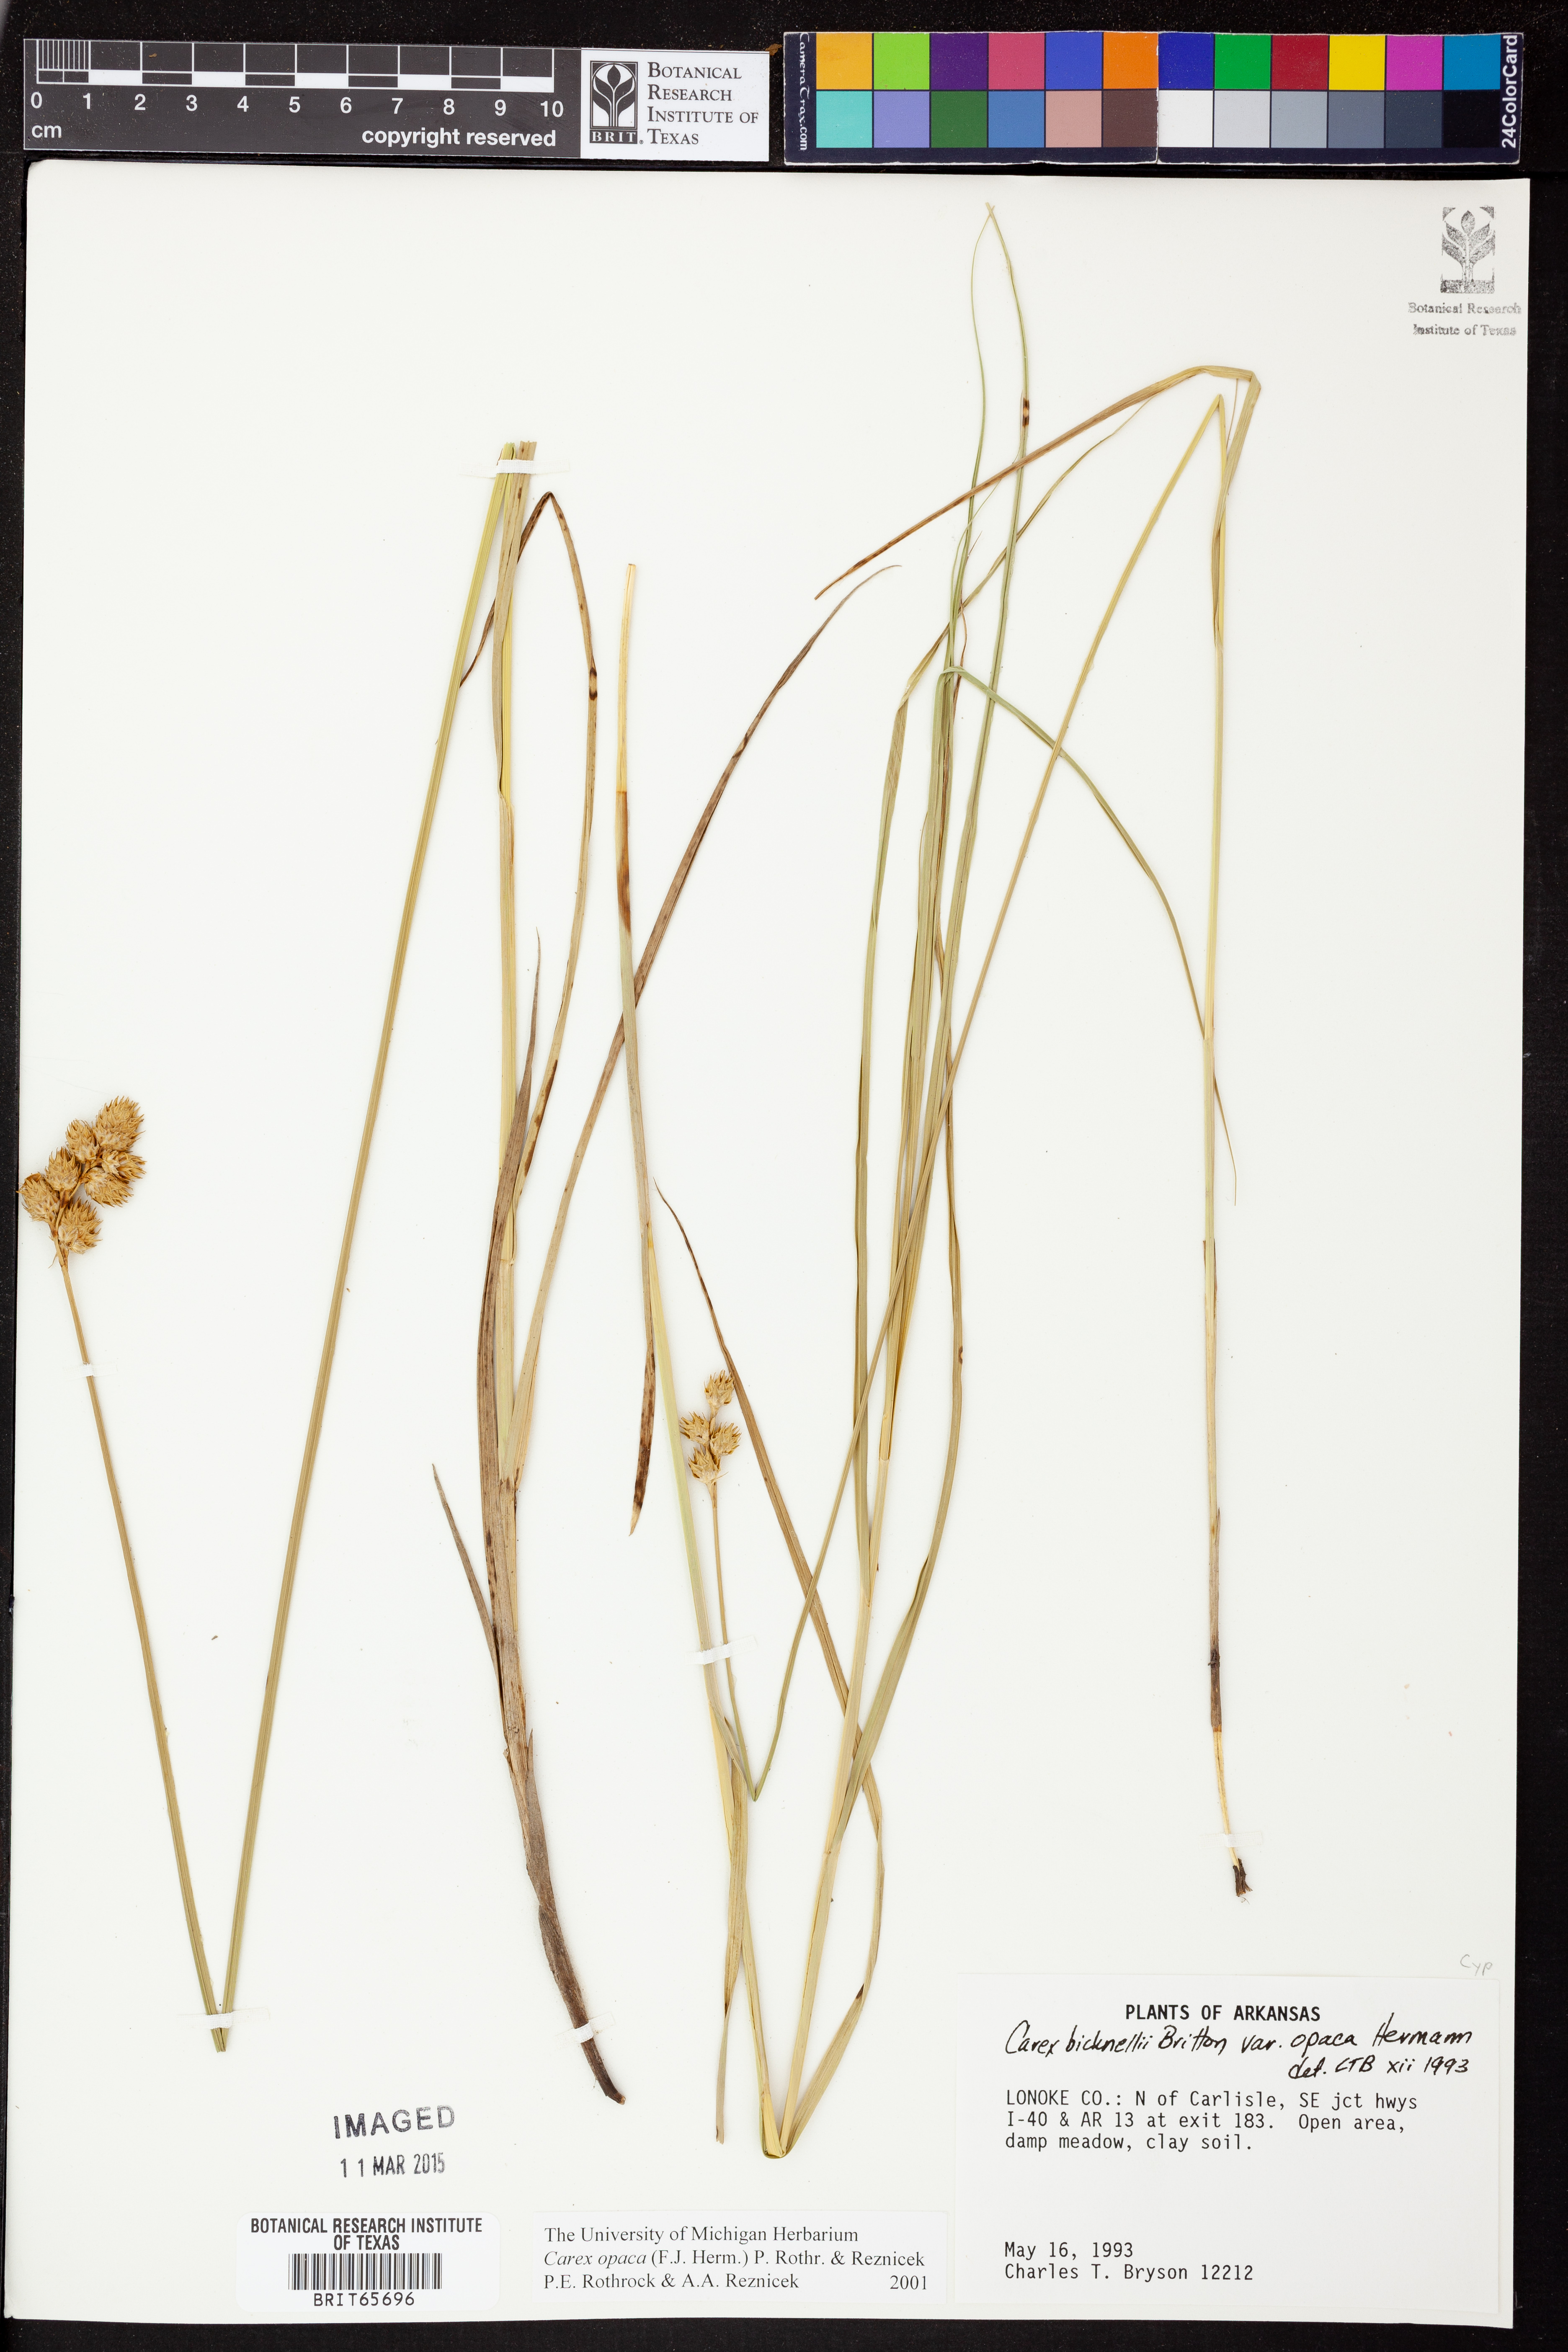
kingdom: Plantae
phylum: Tracheophyta
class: Liliopsida
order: Poales
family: Cyperaceae
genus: Carex
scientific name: Carex opaca
